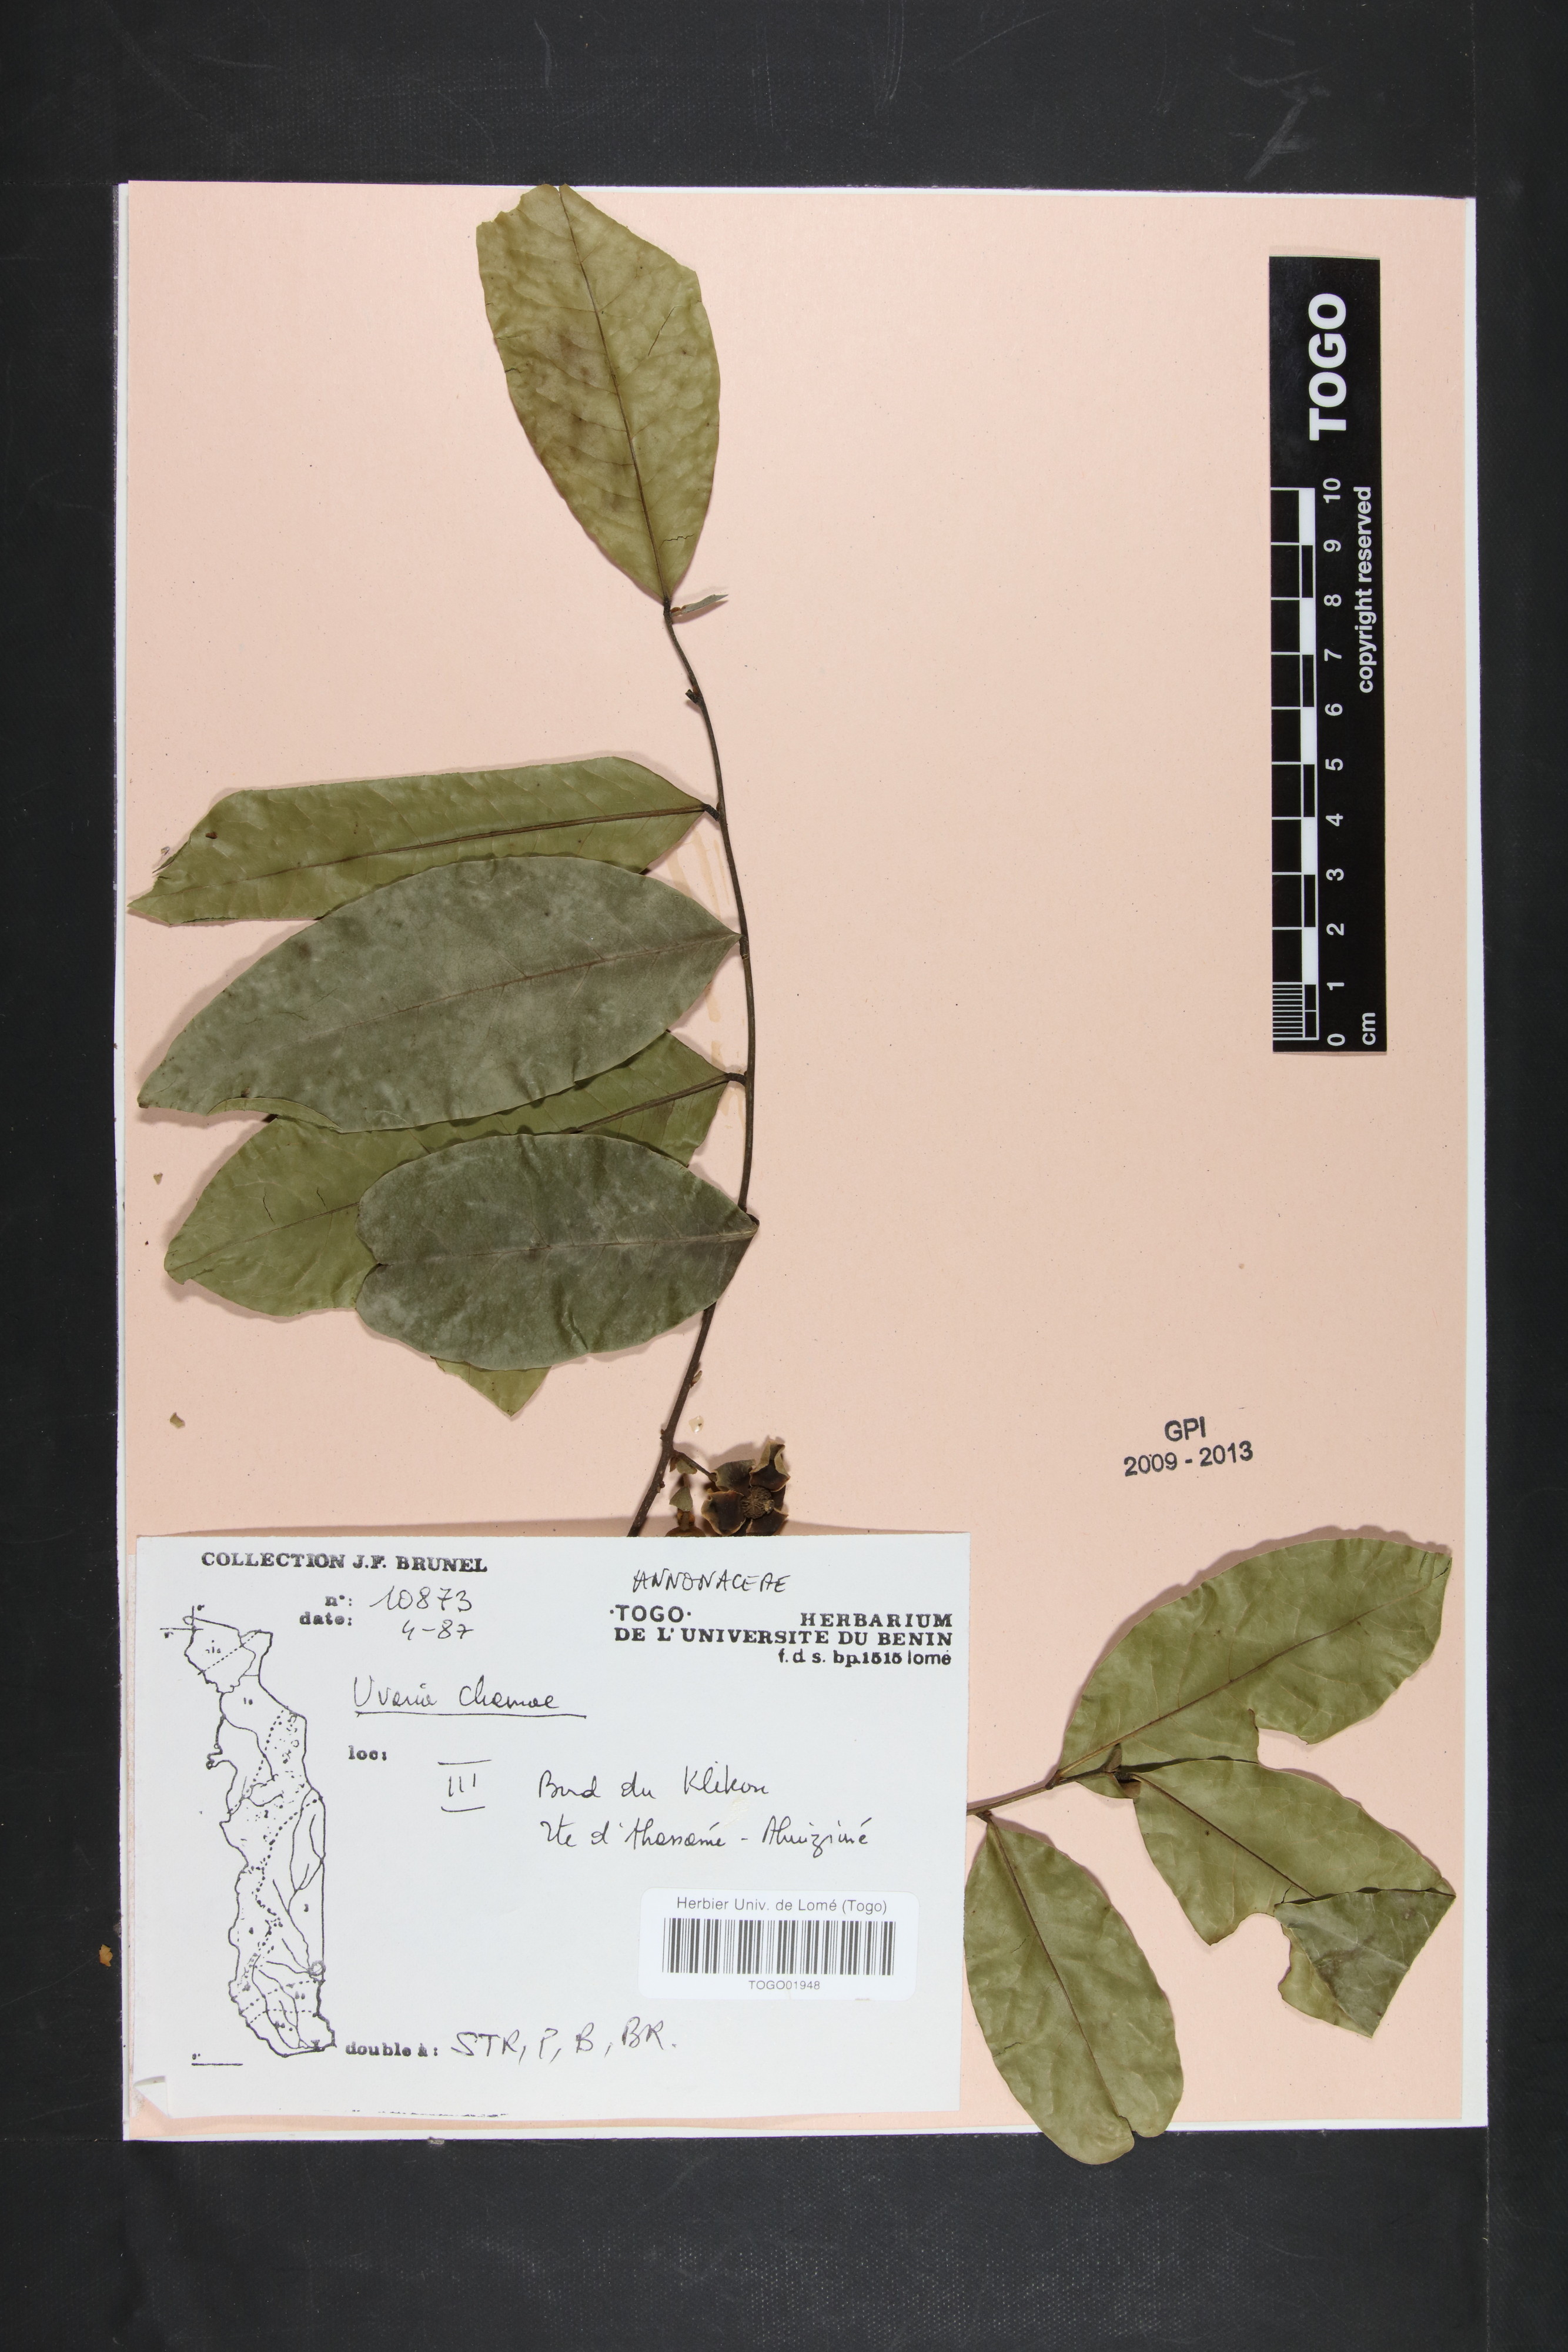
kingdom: Plantae
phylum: Tracheophyta
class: Magnoliopsida
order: Magnoliales
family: Annonaceae
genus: Uvaria
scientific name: Uvaria chamae
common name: Finger-root
